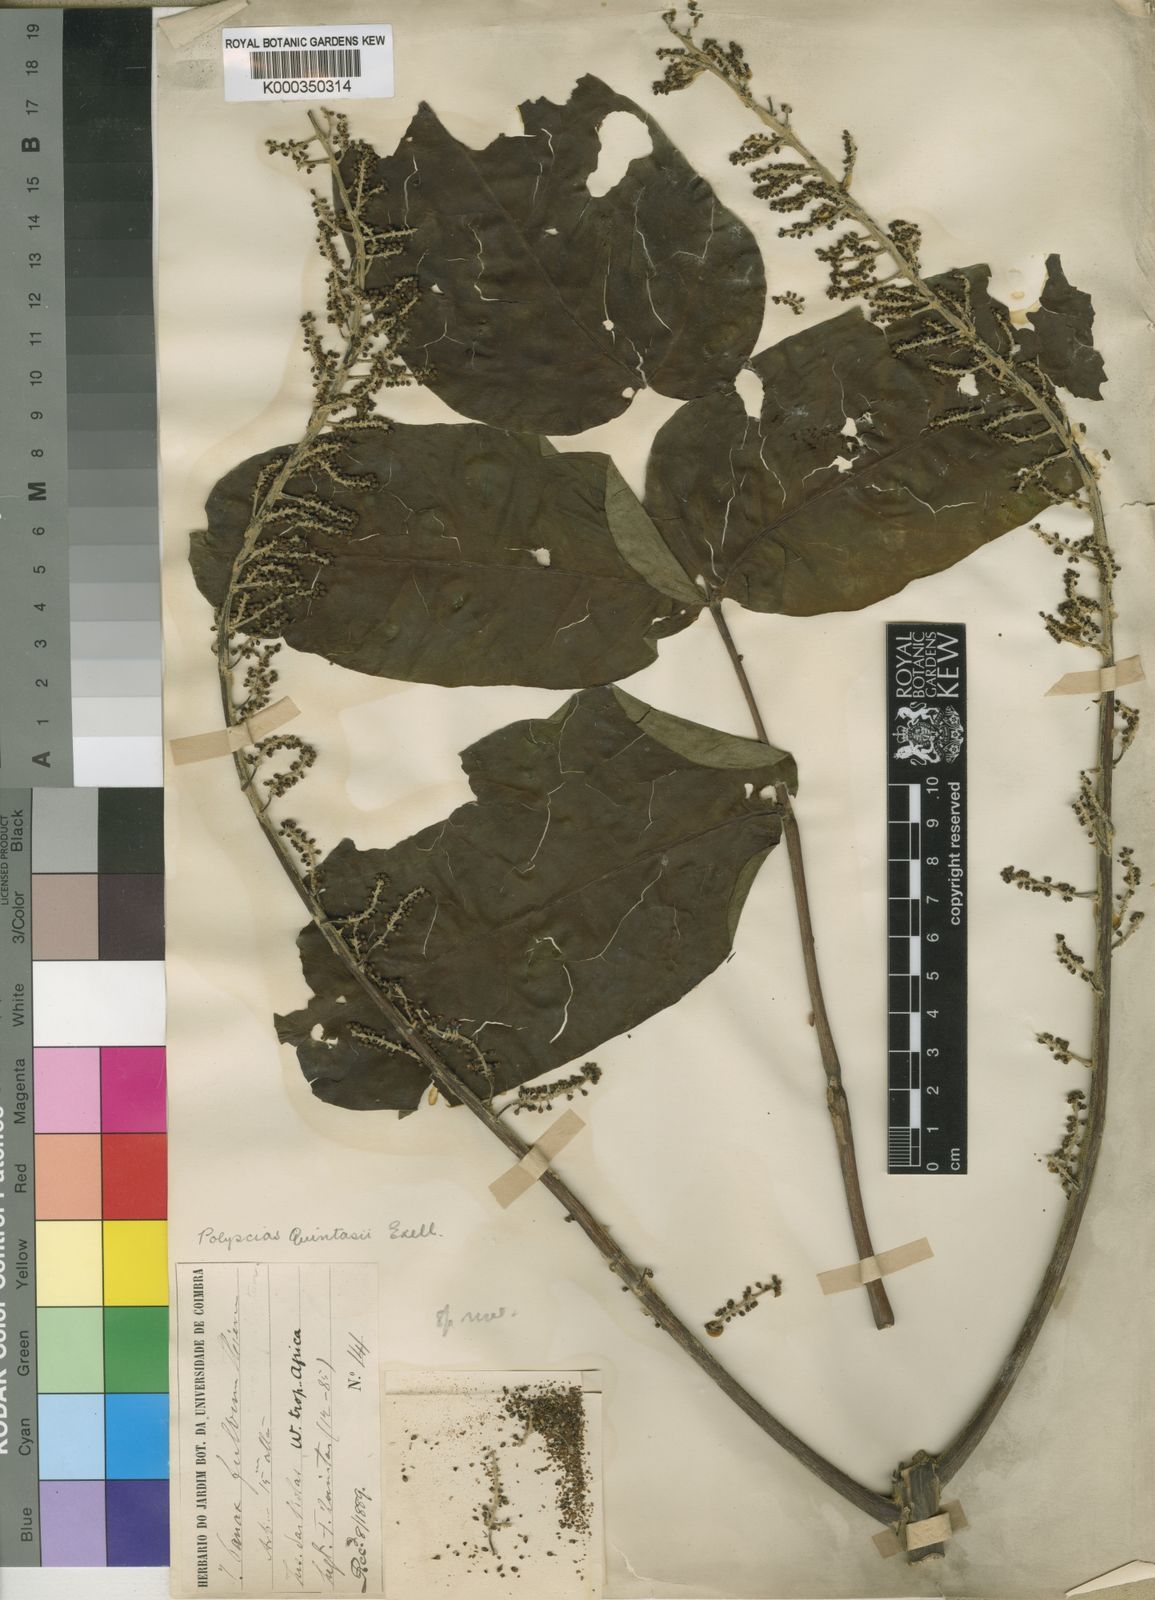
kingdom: Plantae
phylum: Tracheophyta
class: Magnoliopsida
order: Apiales
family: Araliaceae
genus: Polyscias
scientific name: Polyscias fulva
